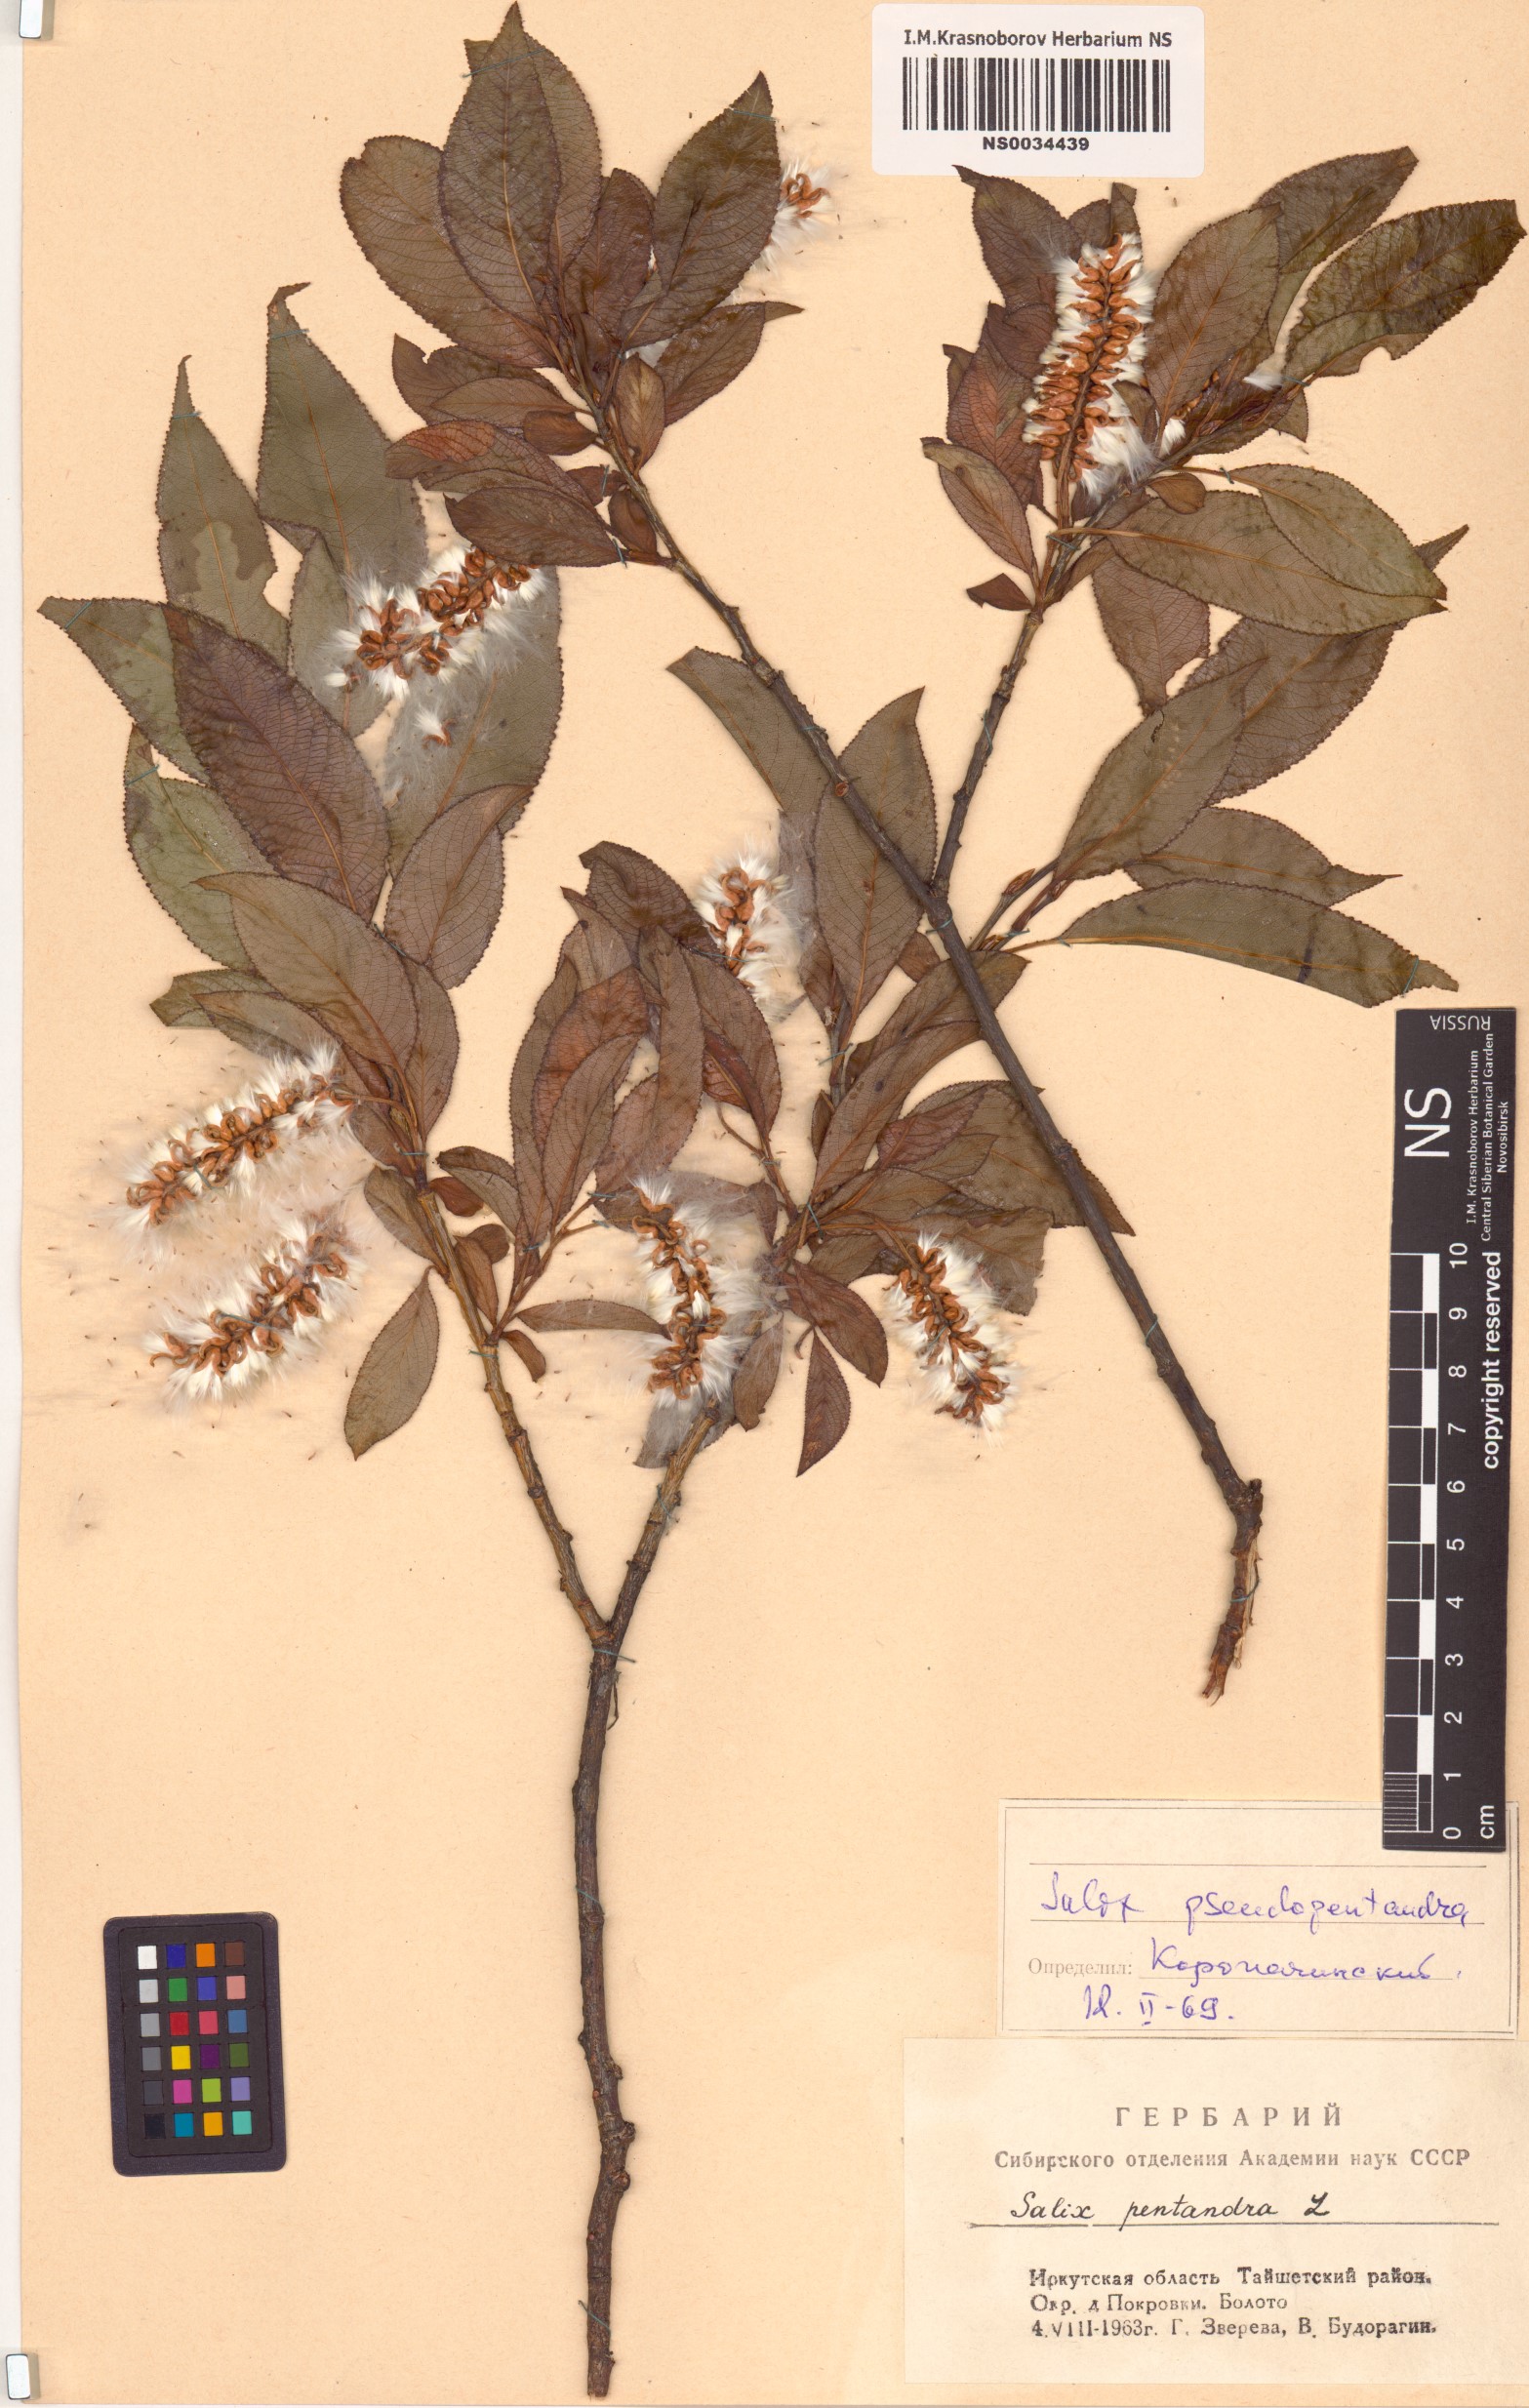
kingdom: Plantae
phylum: Tracheophyta
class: Magnoliopsida
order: Malpighiales
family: Salicaceae
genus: Salix
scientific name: Salix pseudopentandra
